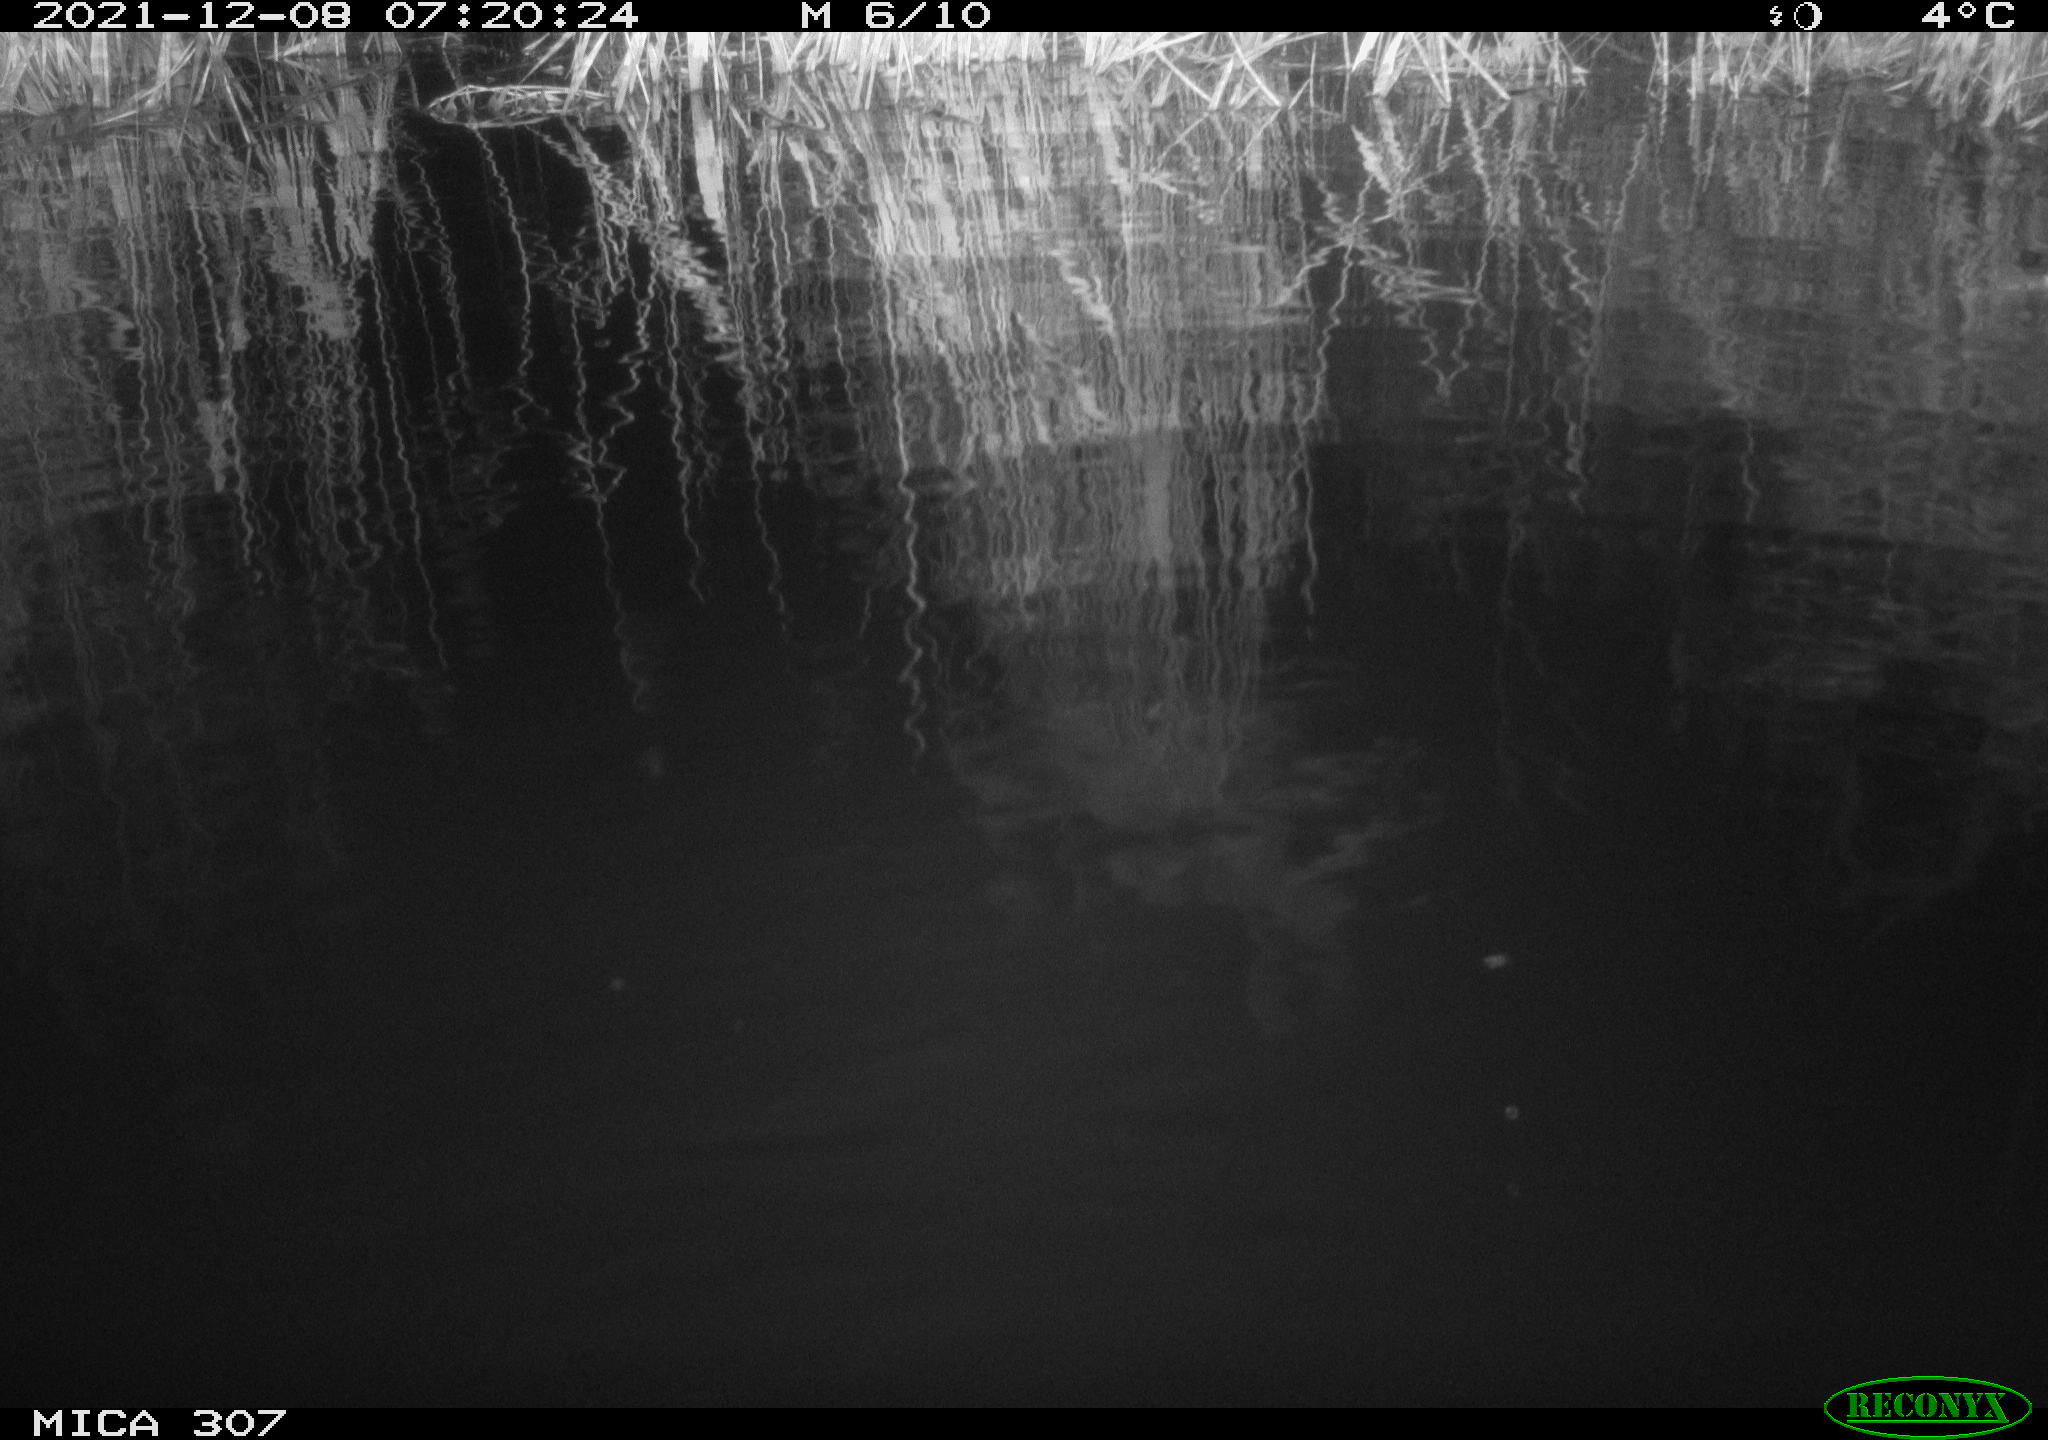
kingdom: Animalia
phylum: Chordata
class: Mammalia
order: Rodentia
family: Muridae
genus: Rattus
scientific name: Rattus norvegicus
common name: Brown rat
